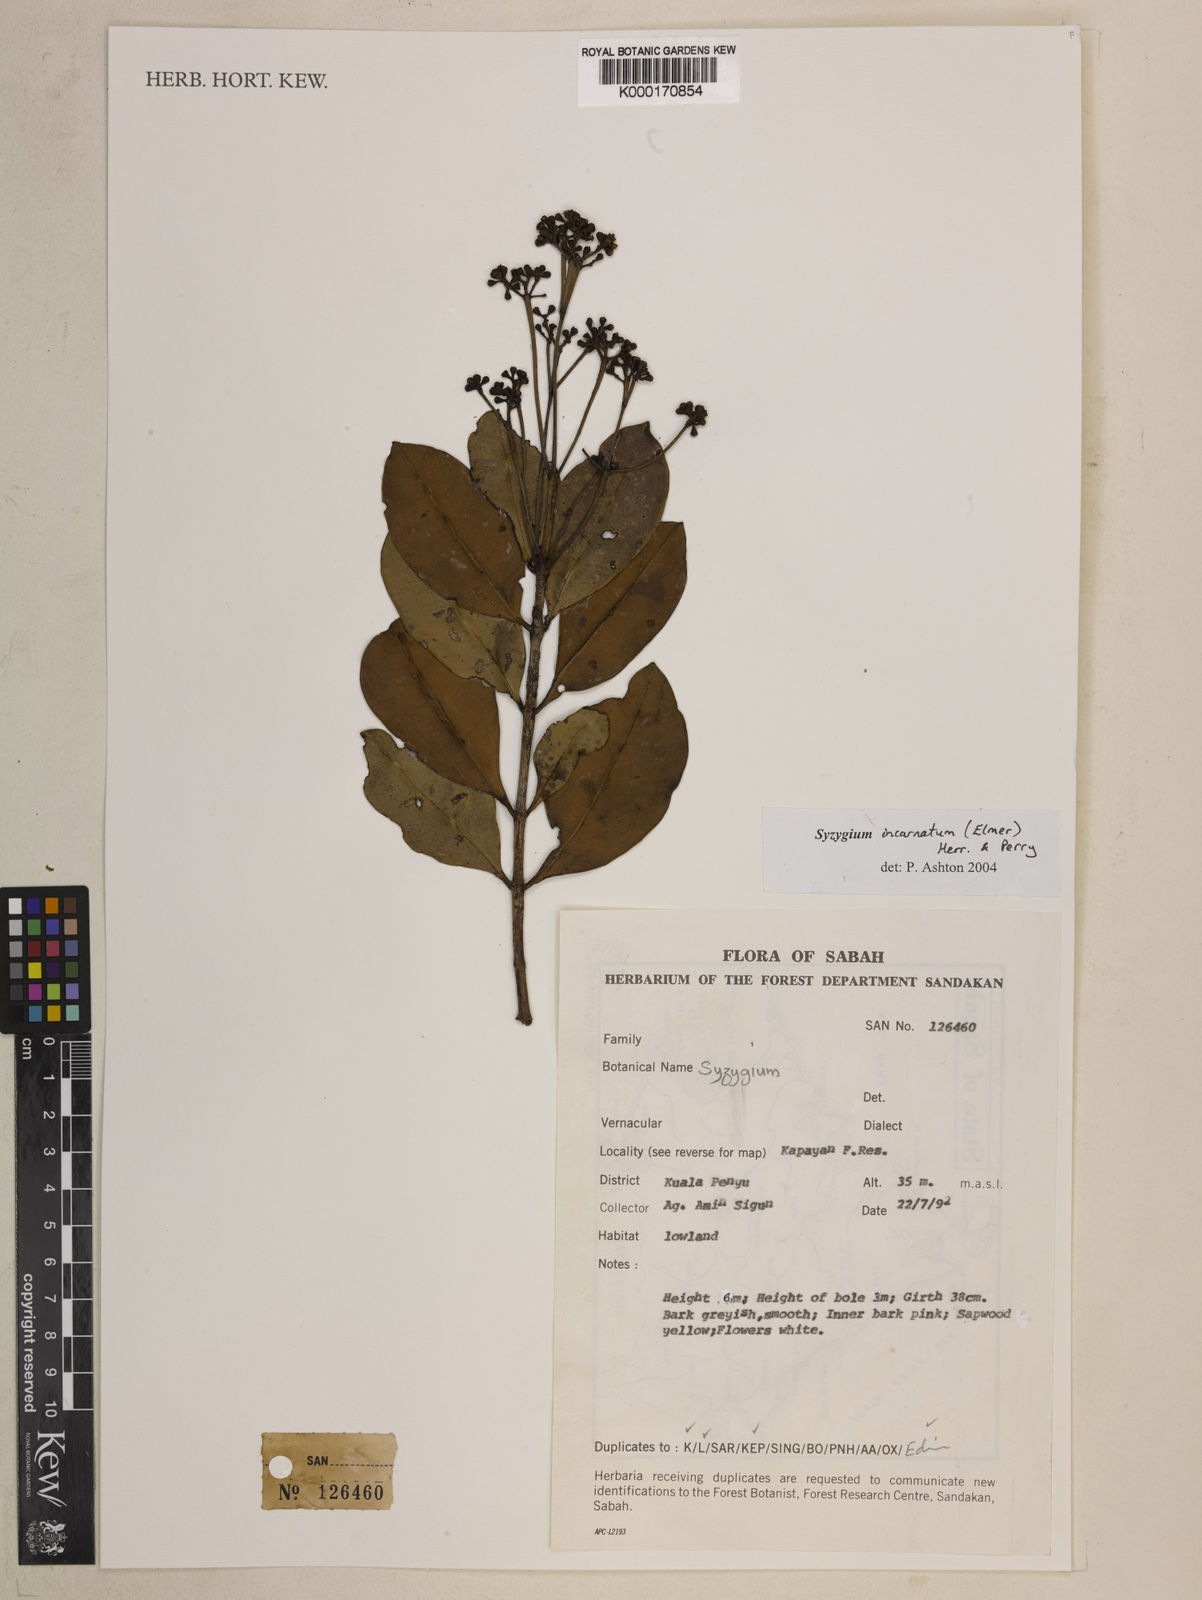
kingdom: Plantae
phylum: Tracheophyta
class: Magnoliopsida
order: Myrtales
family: Myrtaceae
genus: Syzygium
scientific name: Syzygium incarnatum
